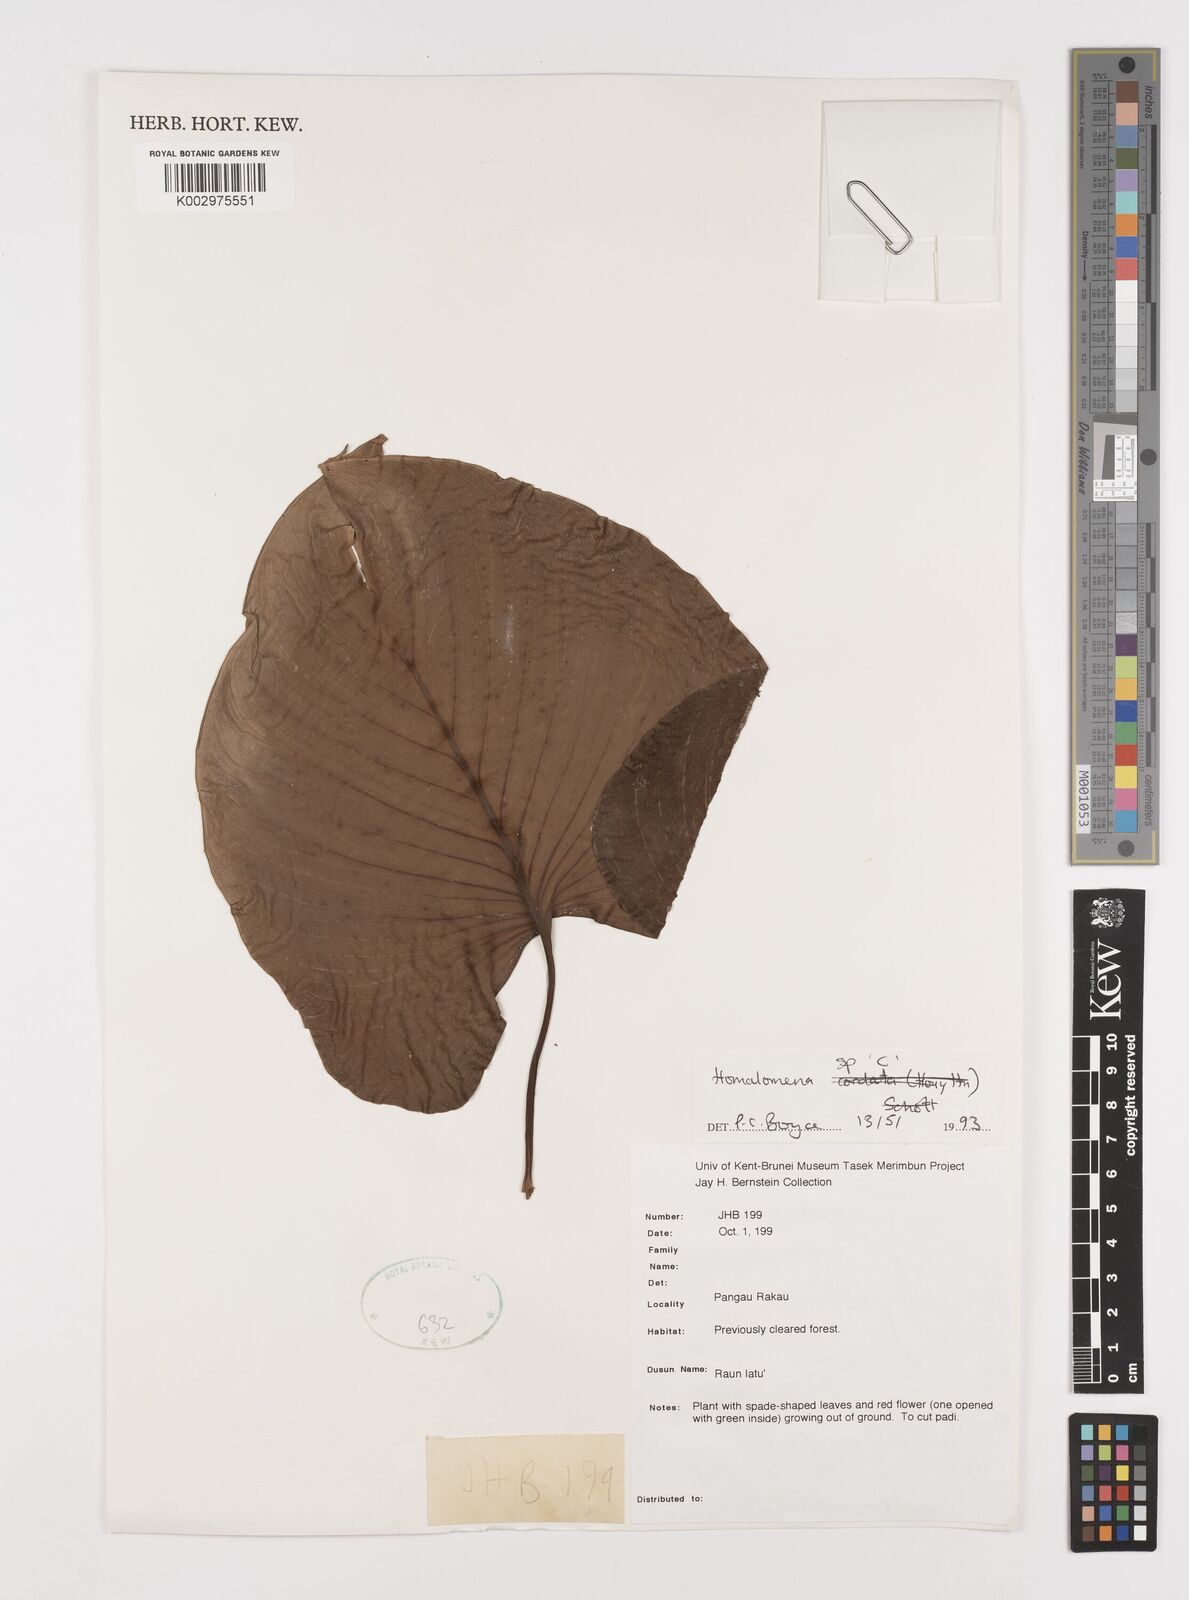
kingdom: Plantae
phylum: Tracheophyta
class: Liliopsida
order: Alismatales
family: Araceae
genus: Homalomena
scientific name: Homalomena
